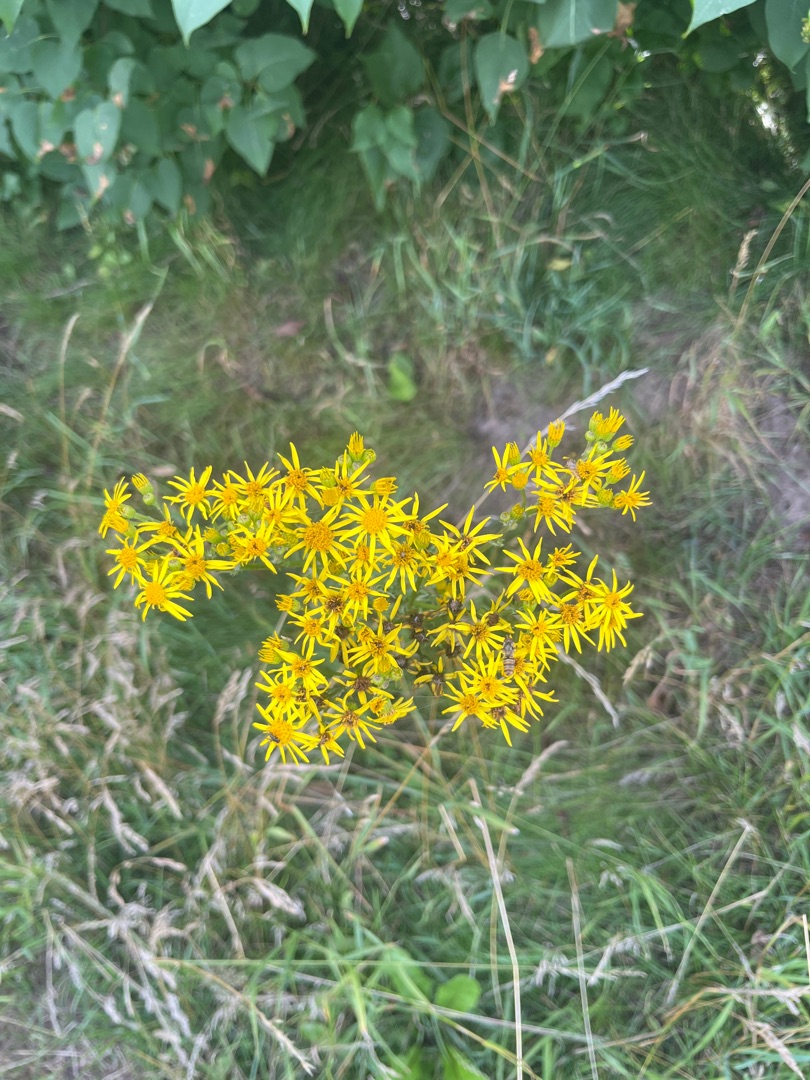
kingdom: Plantae
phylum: Tracheophyta
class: Magnoliopsida
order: Asterales
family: Asteraceae
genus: Jacobaea
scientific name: Jacobaea vulgaris
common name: Eng-brandbæger
